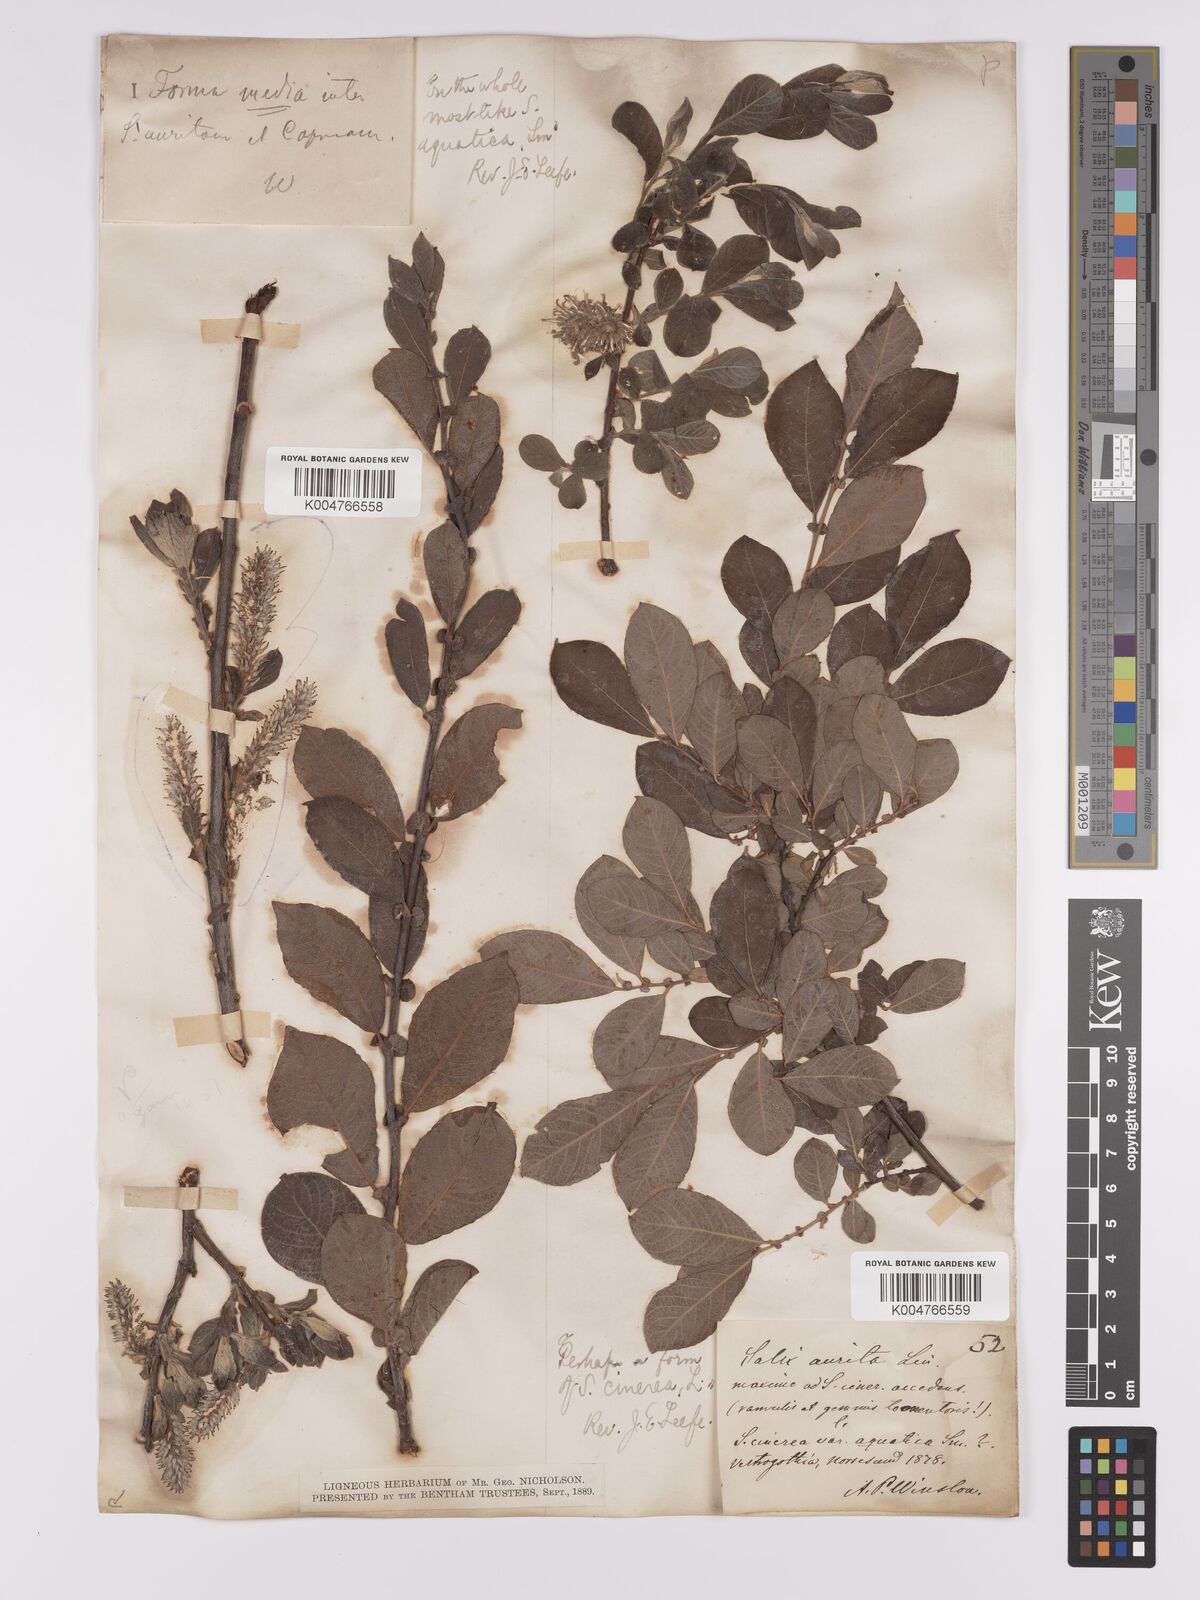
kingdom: Plantae
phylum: Tracheophyta
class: Magnoliopsida
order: Malpighiales
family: Salicaceae
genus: Salix
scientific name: Salix
